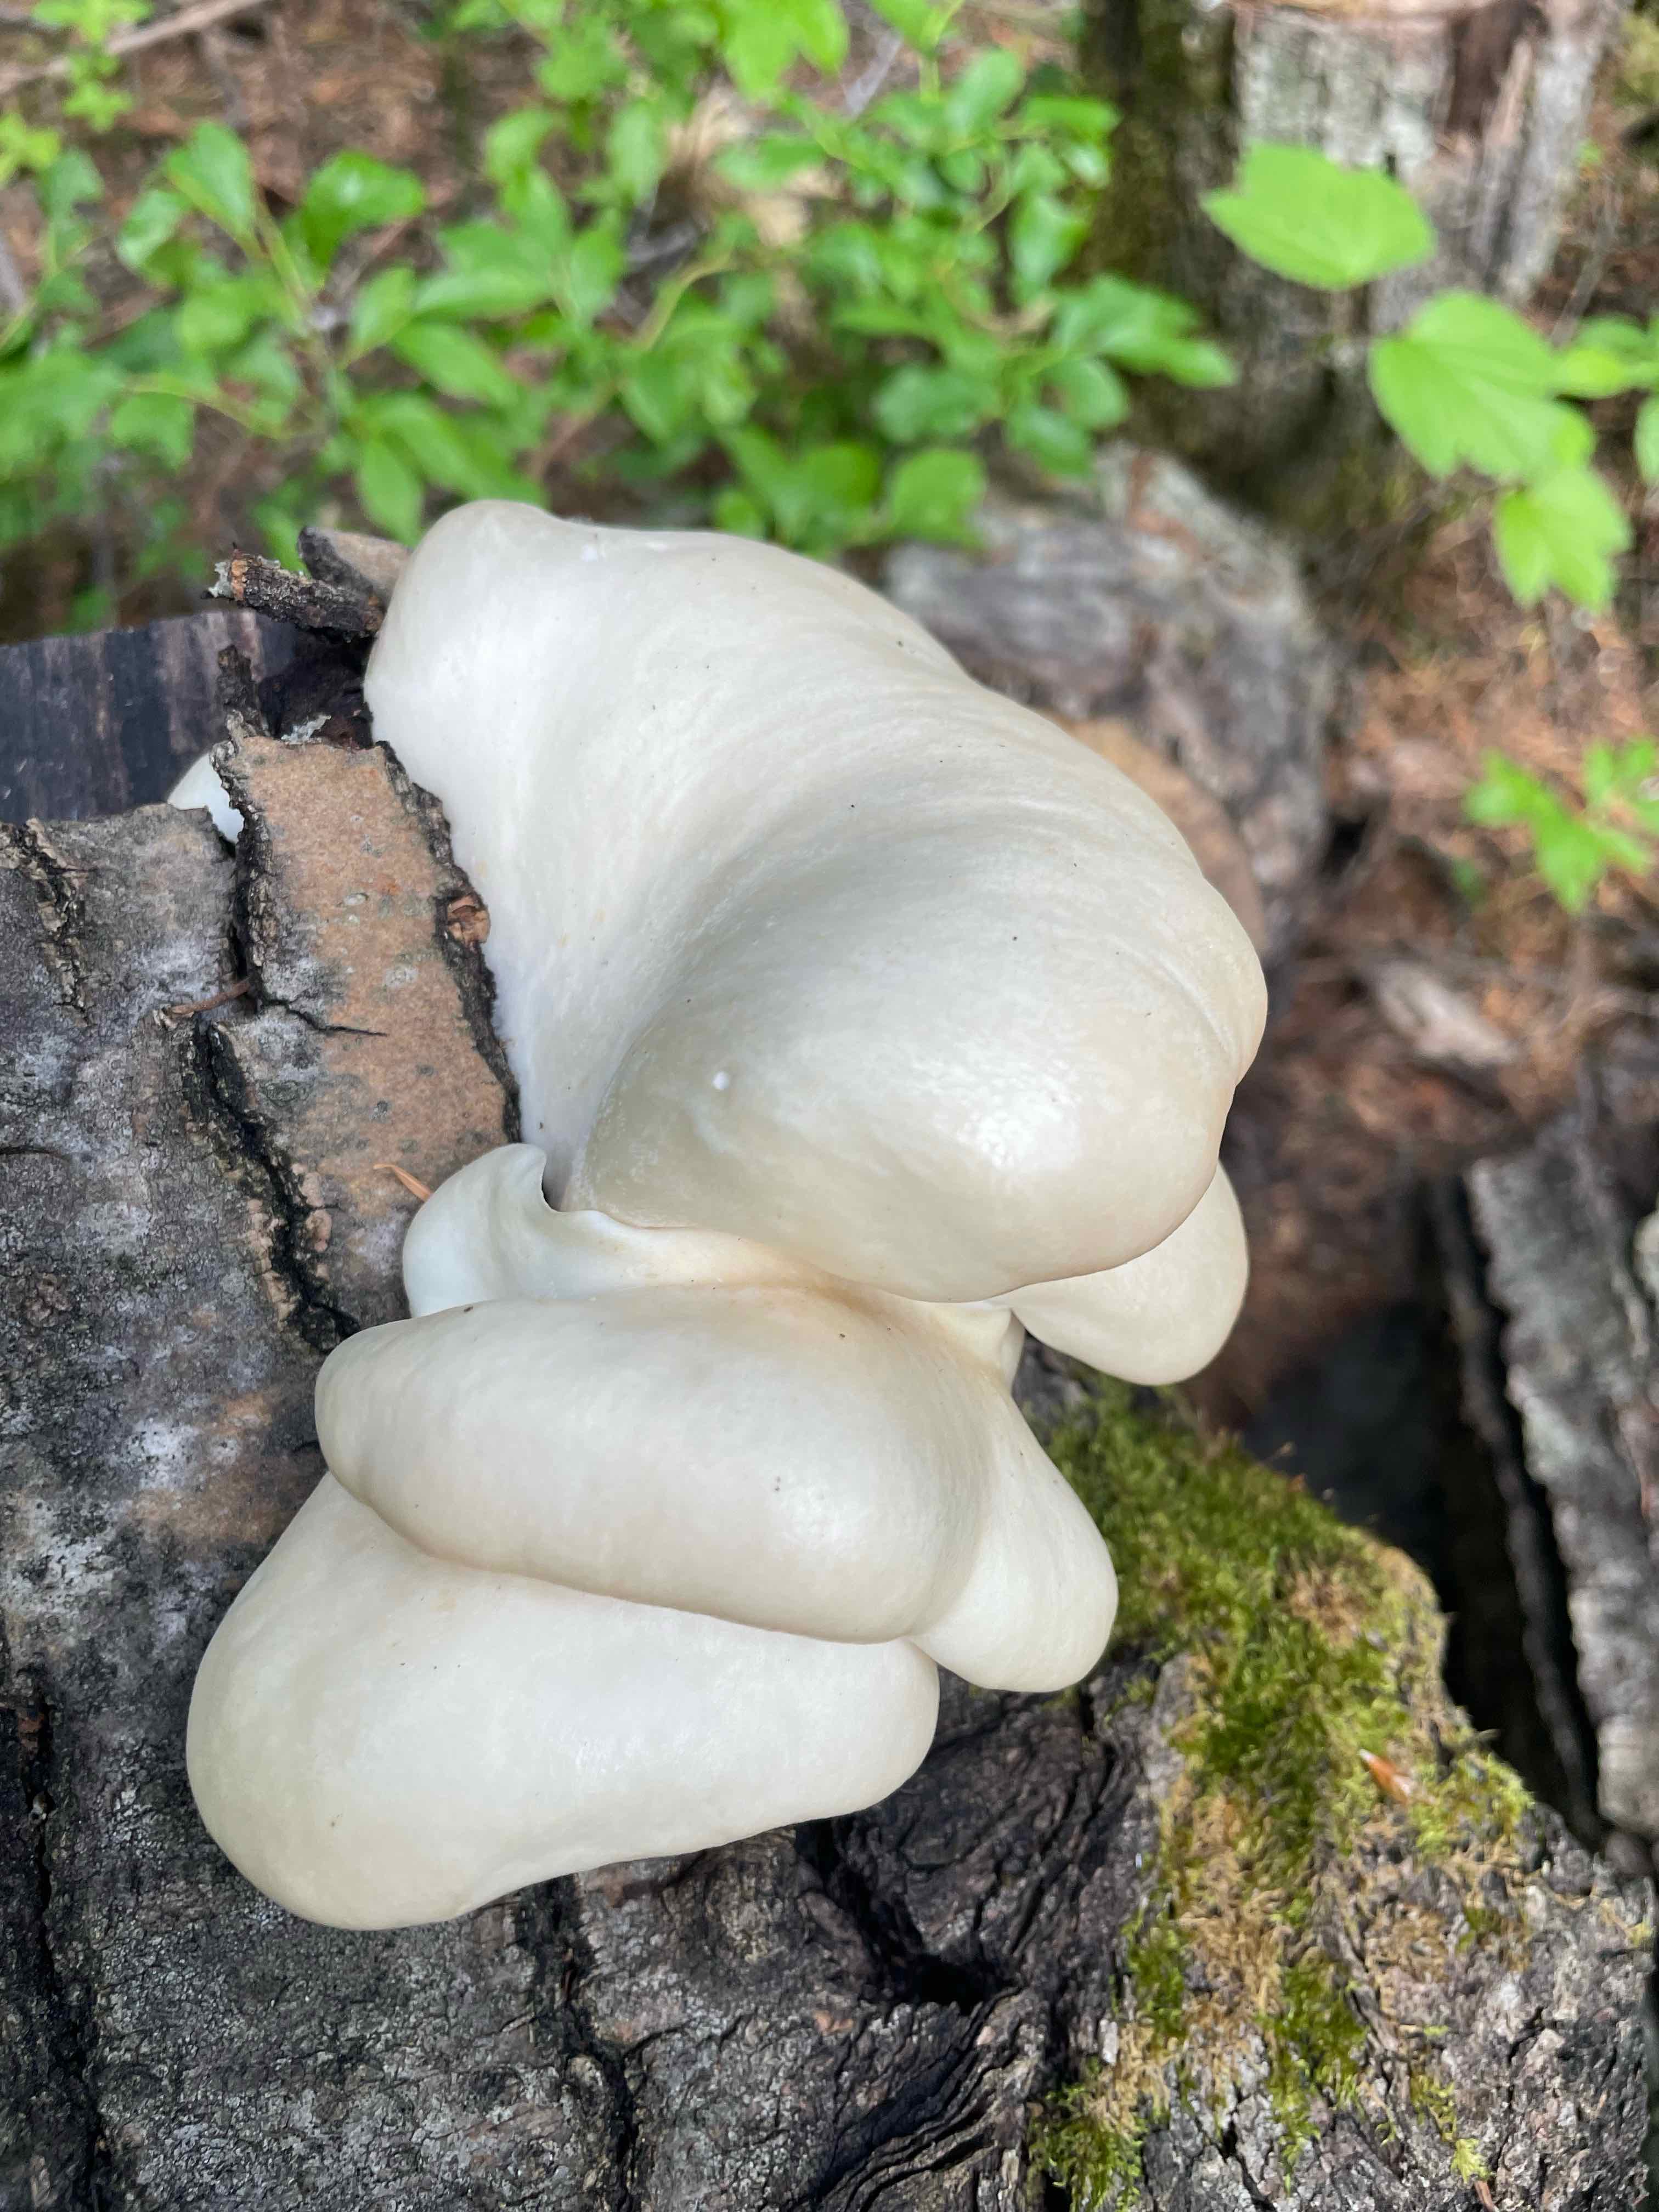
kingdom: Fungi
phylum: Basidiomycota
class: Agaricomycetes
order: Agaricales
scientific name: Agaricales
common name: champignonordenen
